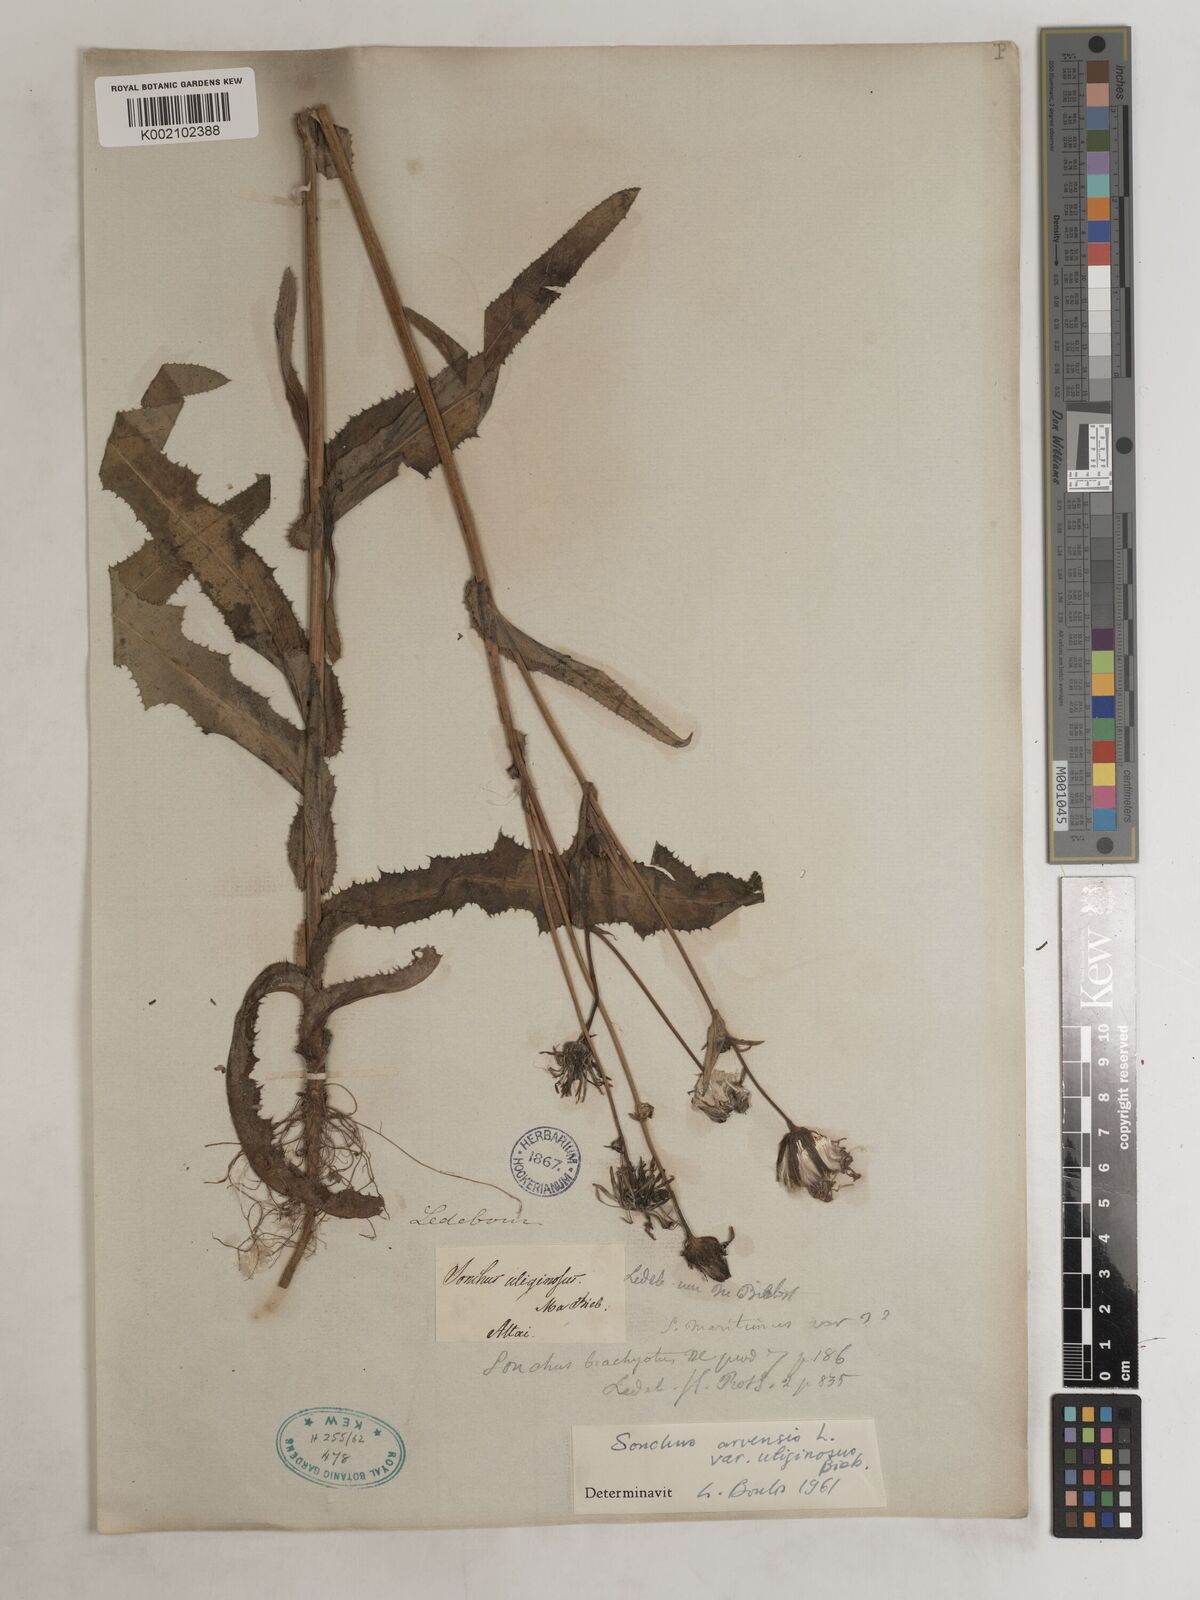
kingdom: Plantae
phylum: Tracheophyta
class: Magnoliopsida
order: Asterales
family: Asteraceae
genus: Sonchus
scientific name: Sonchus arvensis
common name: Perennial sow-thistle
